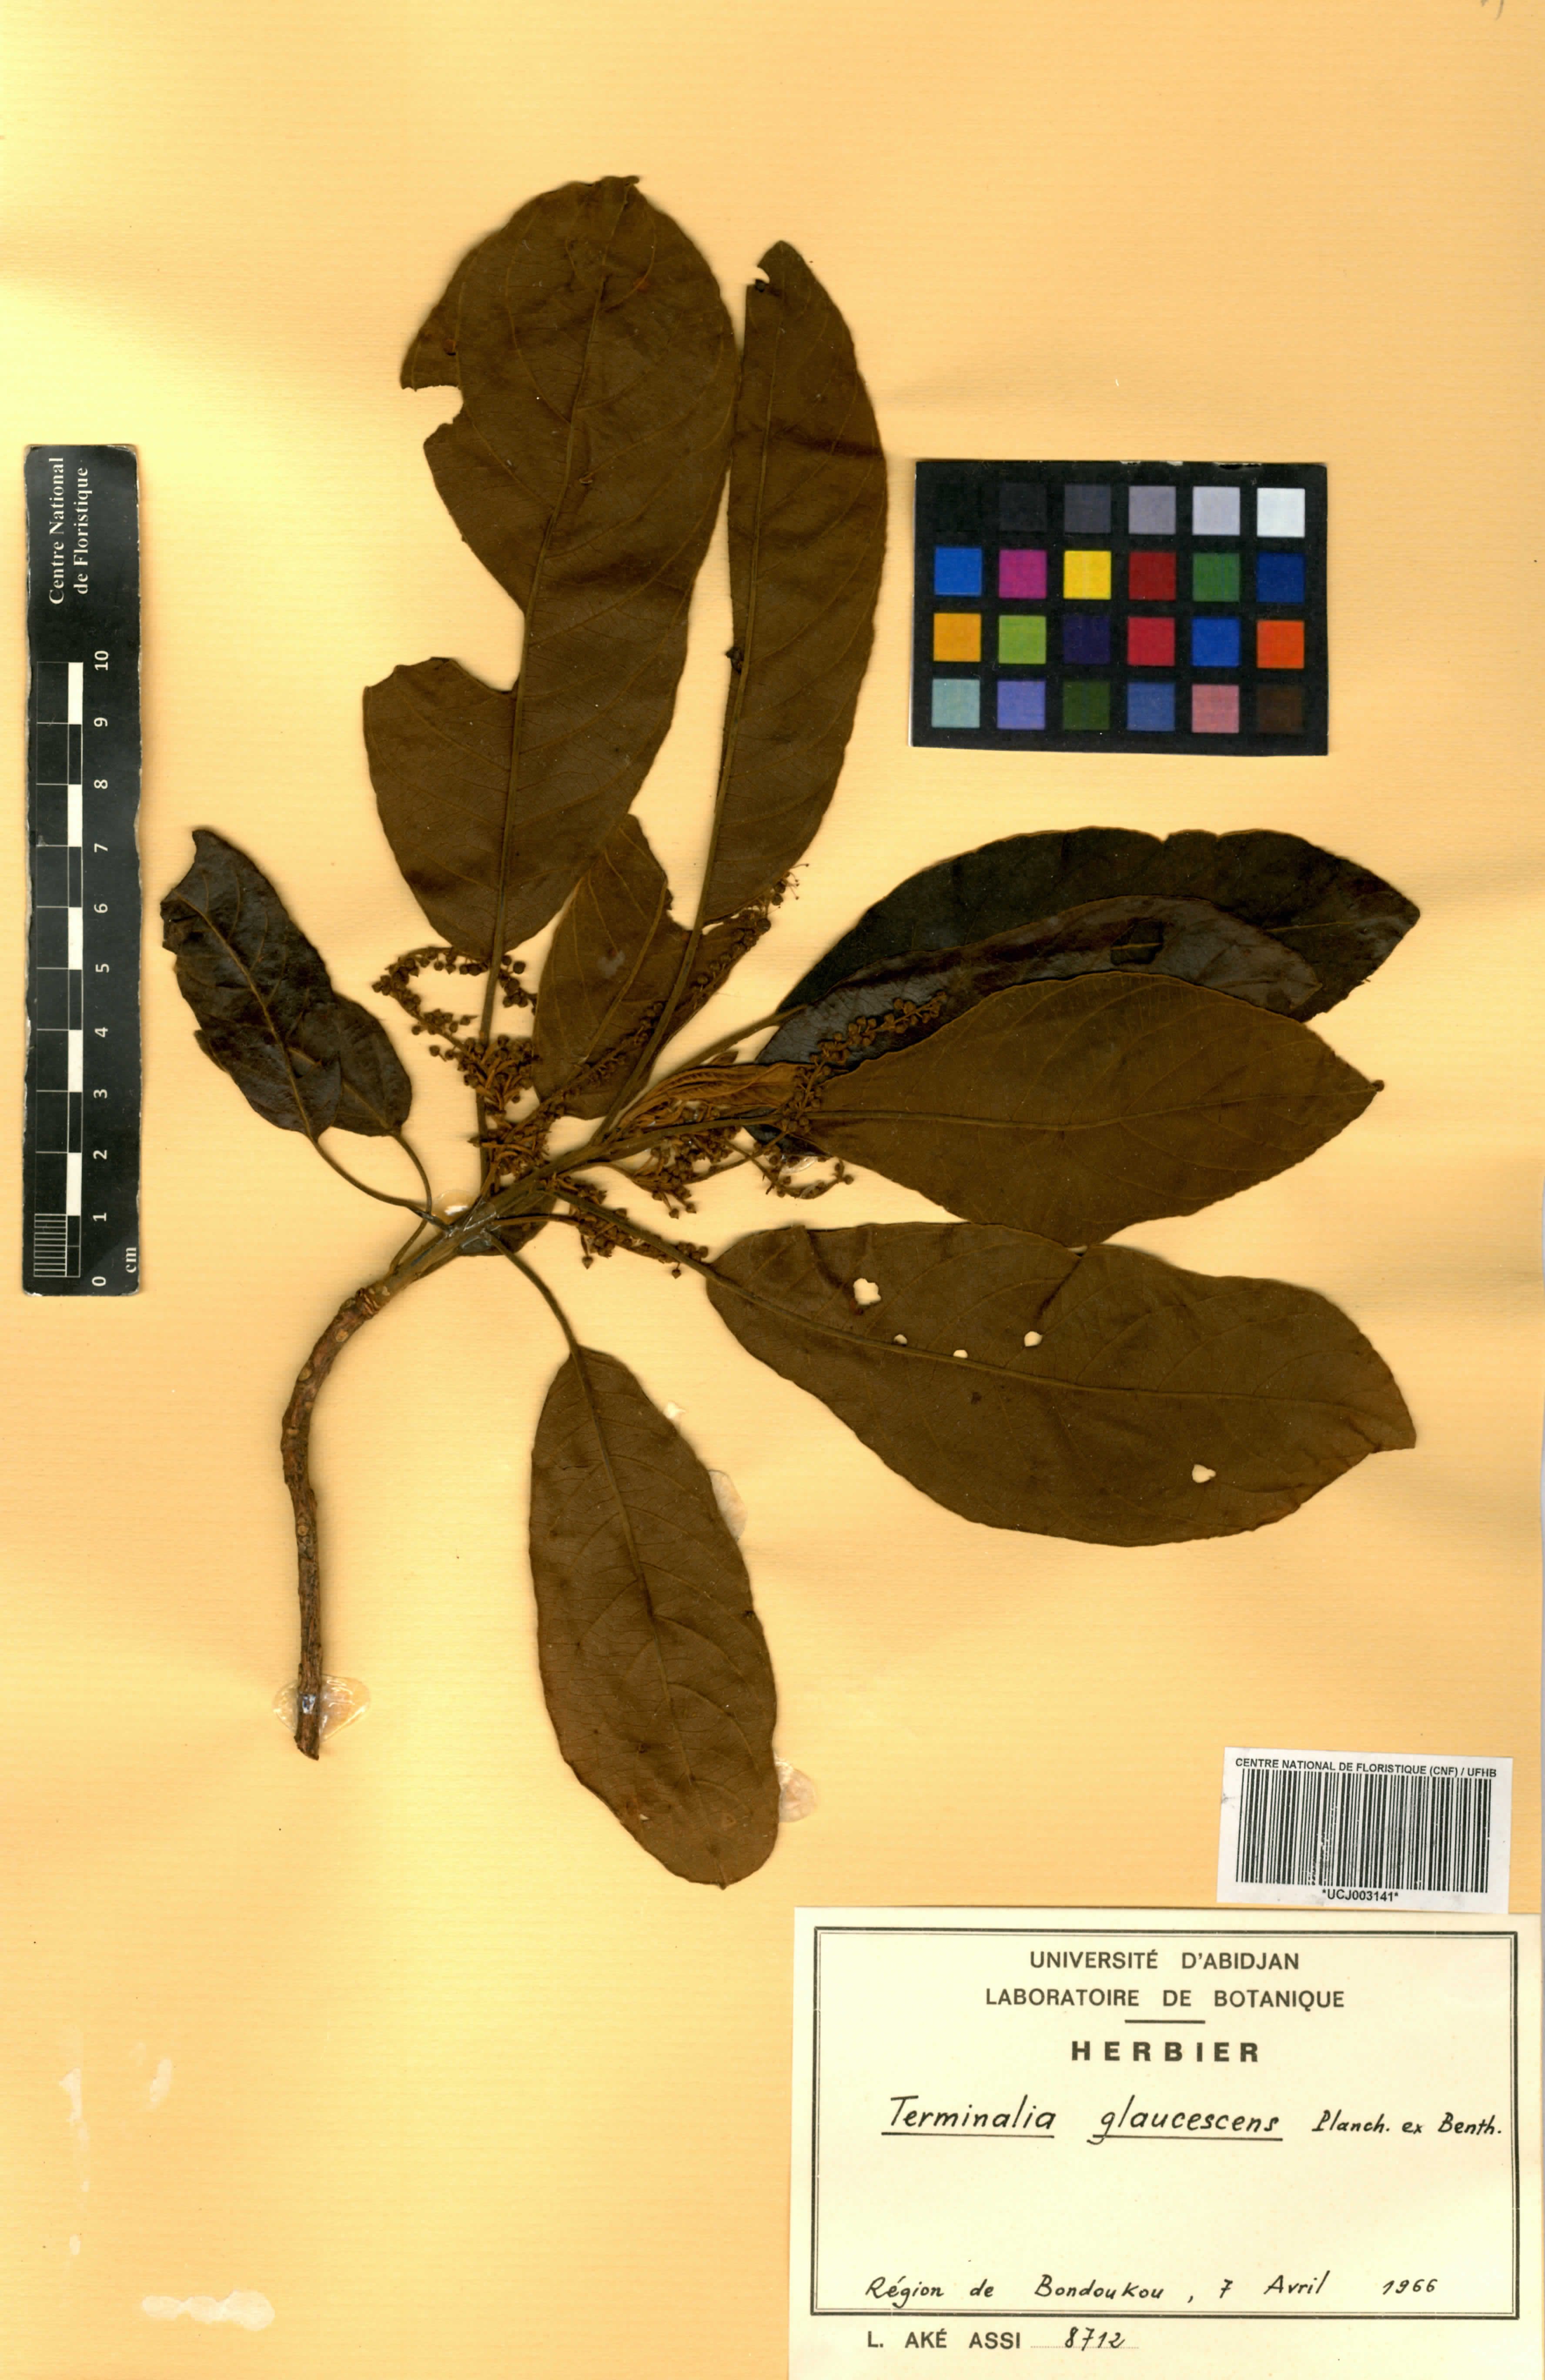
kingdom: Plantae
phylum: Tracheophyta
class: Magnoliopsida
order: Myrtales
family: Combretaceae
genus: Terminalia
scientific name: Terminalia schimperiana
